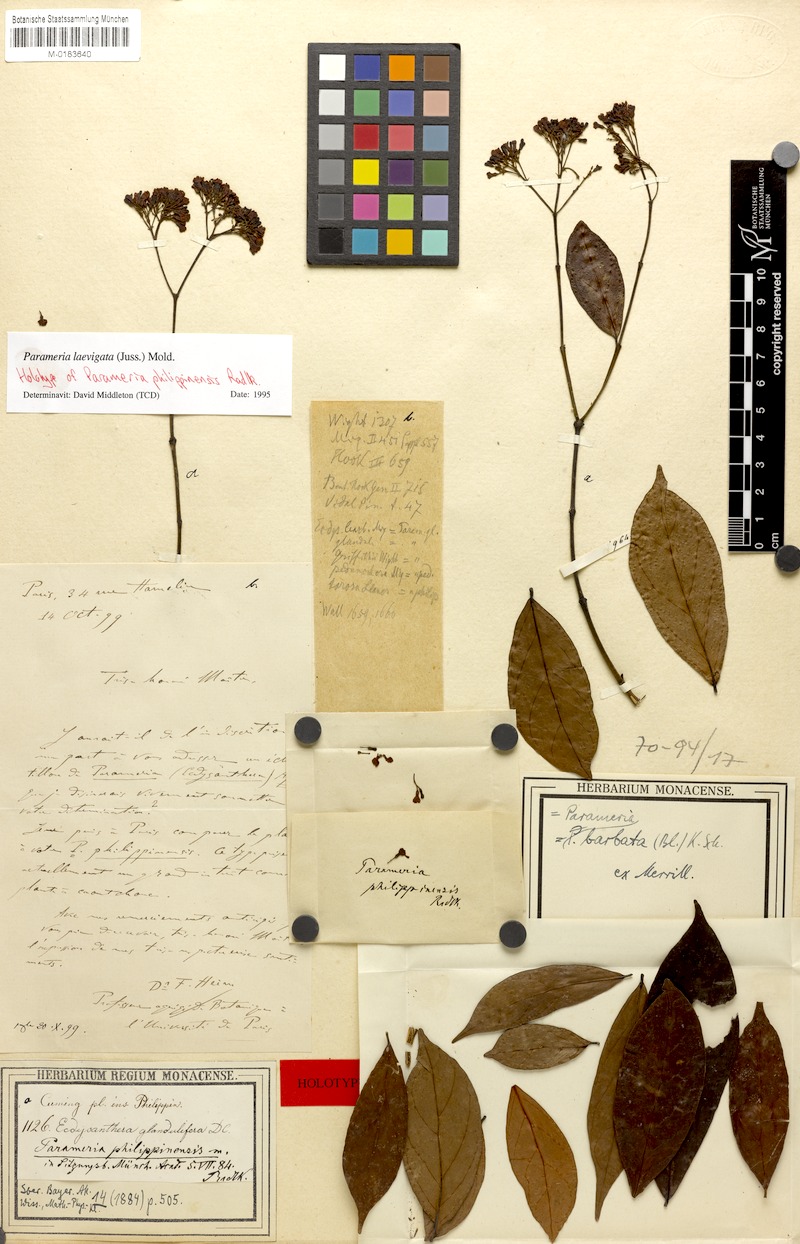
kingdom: Plantae
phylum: Tracheophyta
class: Magnoliopsida
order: Gentianales
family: Apocynaceae
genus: Urceola
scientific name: Urceola laevigata
